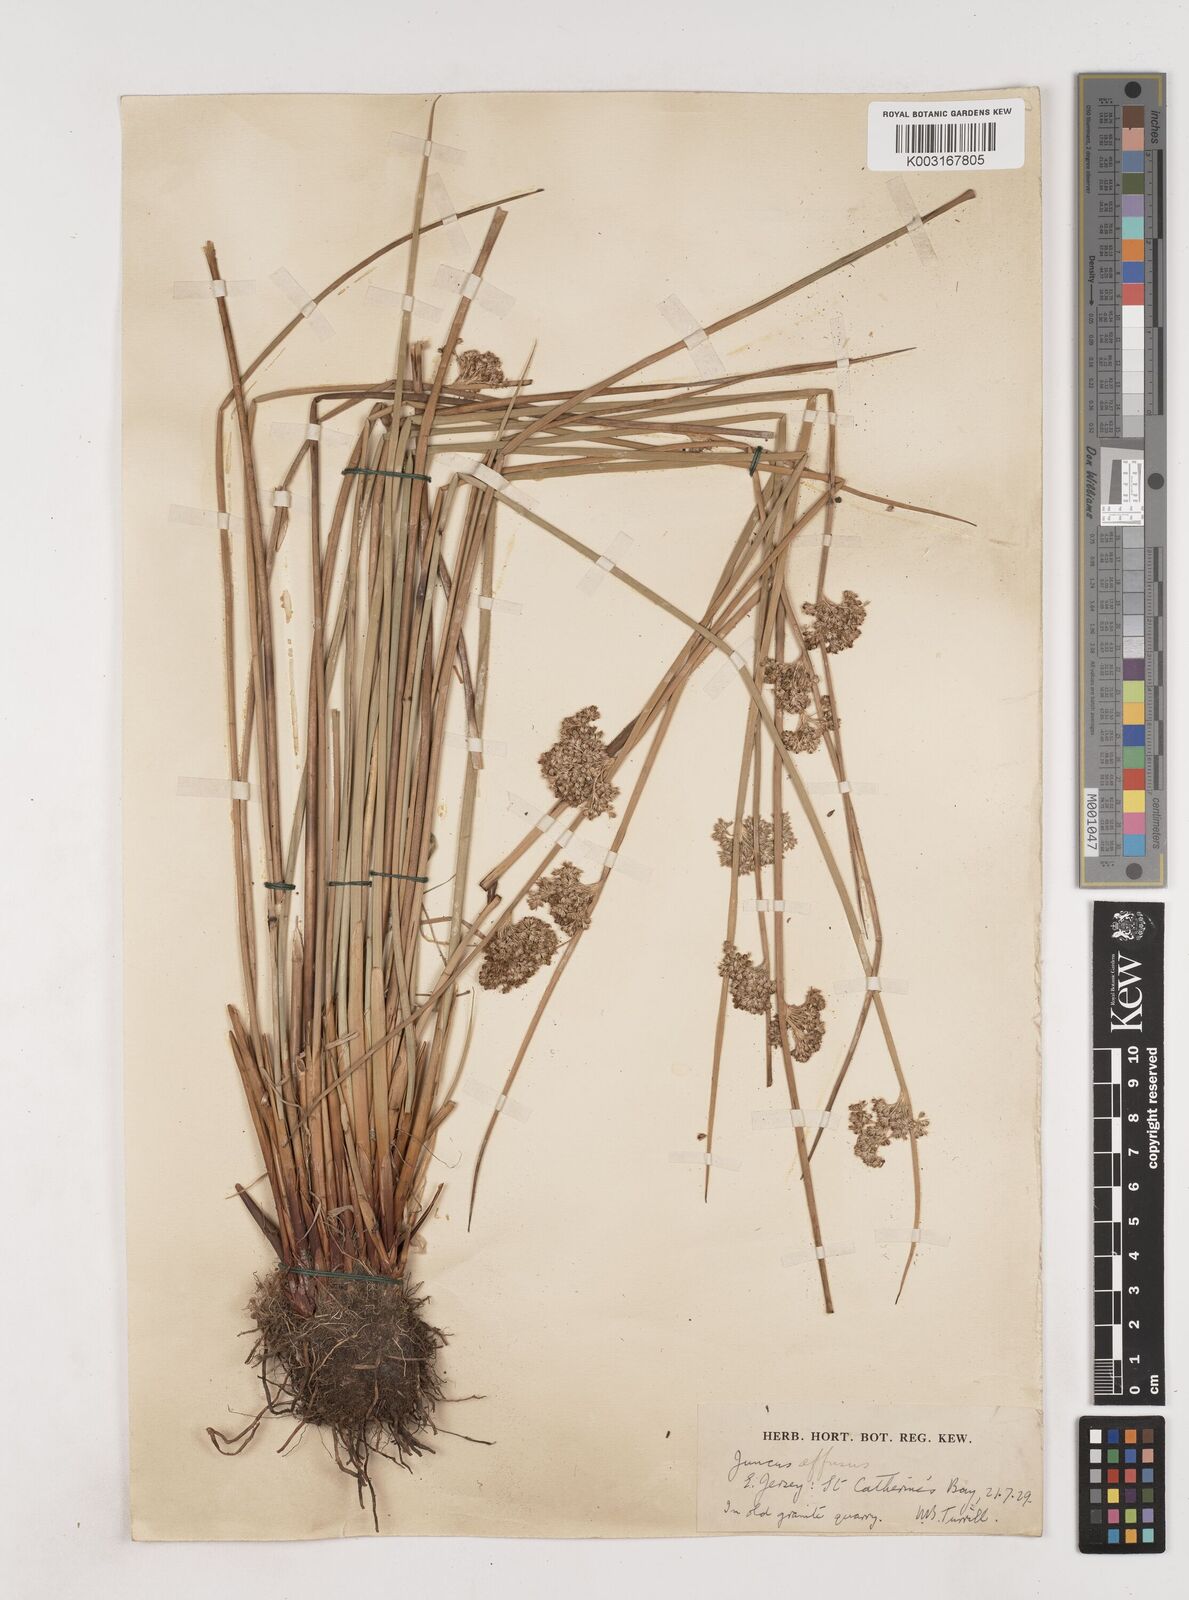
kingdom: Plantae
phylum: Tracheophyta
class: Liliopsida
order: Poales
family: Juncaceae
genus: Juncus
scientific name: Juncus effusus
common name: Soft rush
